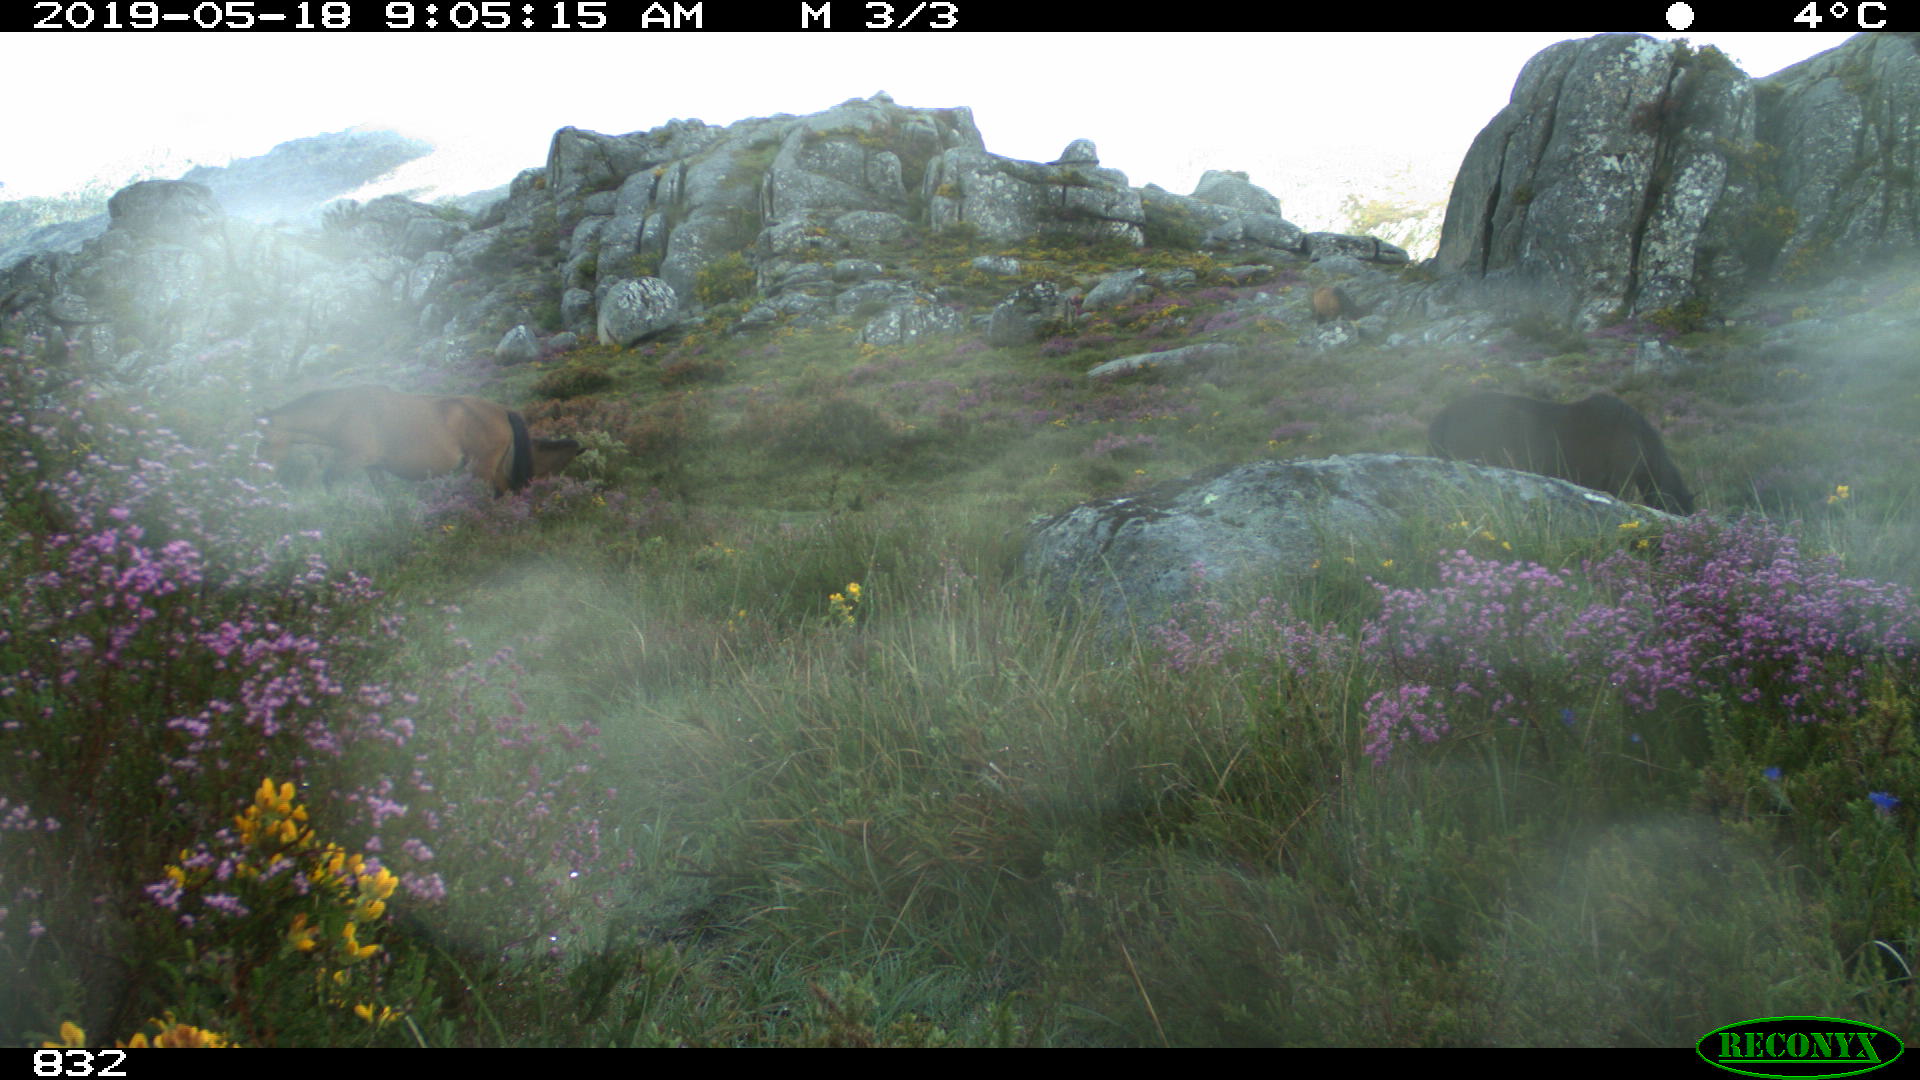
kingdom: Animalia
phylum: Chordata
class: Mammalia
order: Perissodactyla
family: Equidae
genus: Equus
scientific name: Equus caballus
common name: Horse
